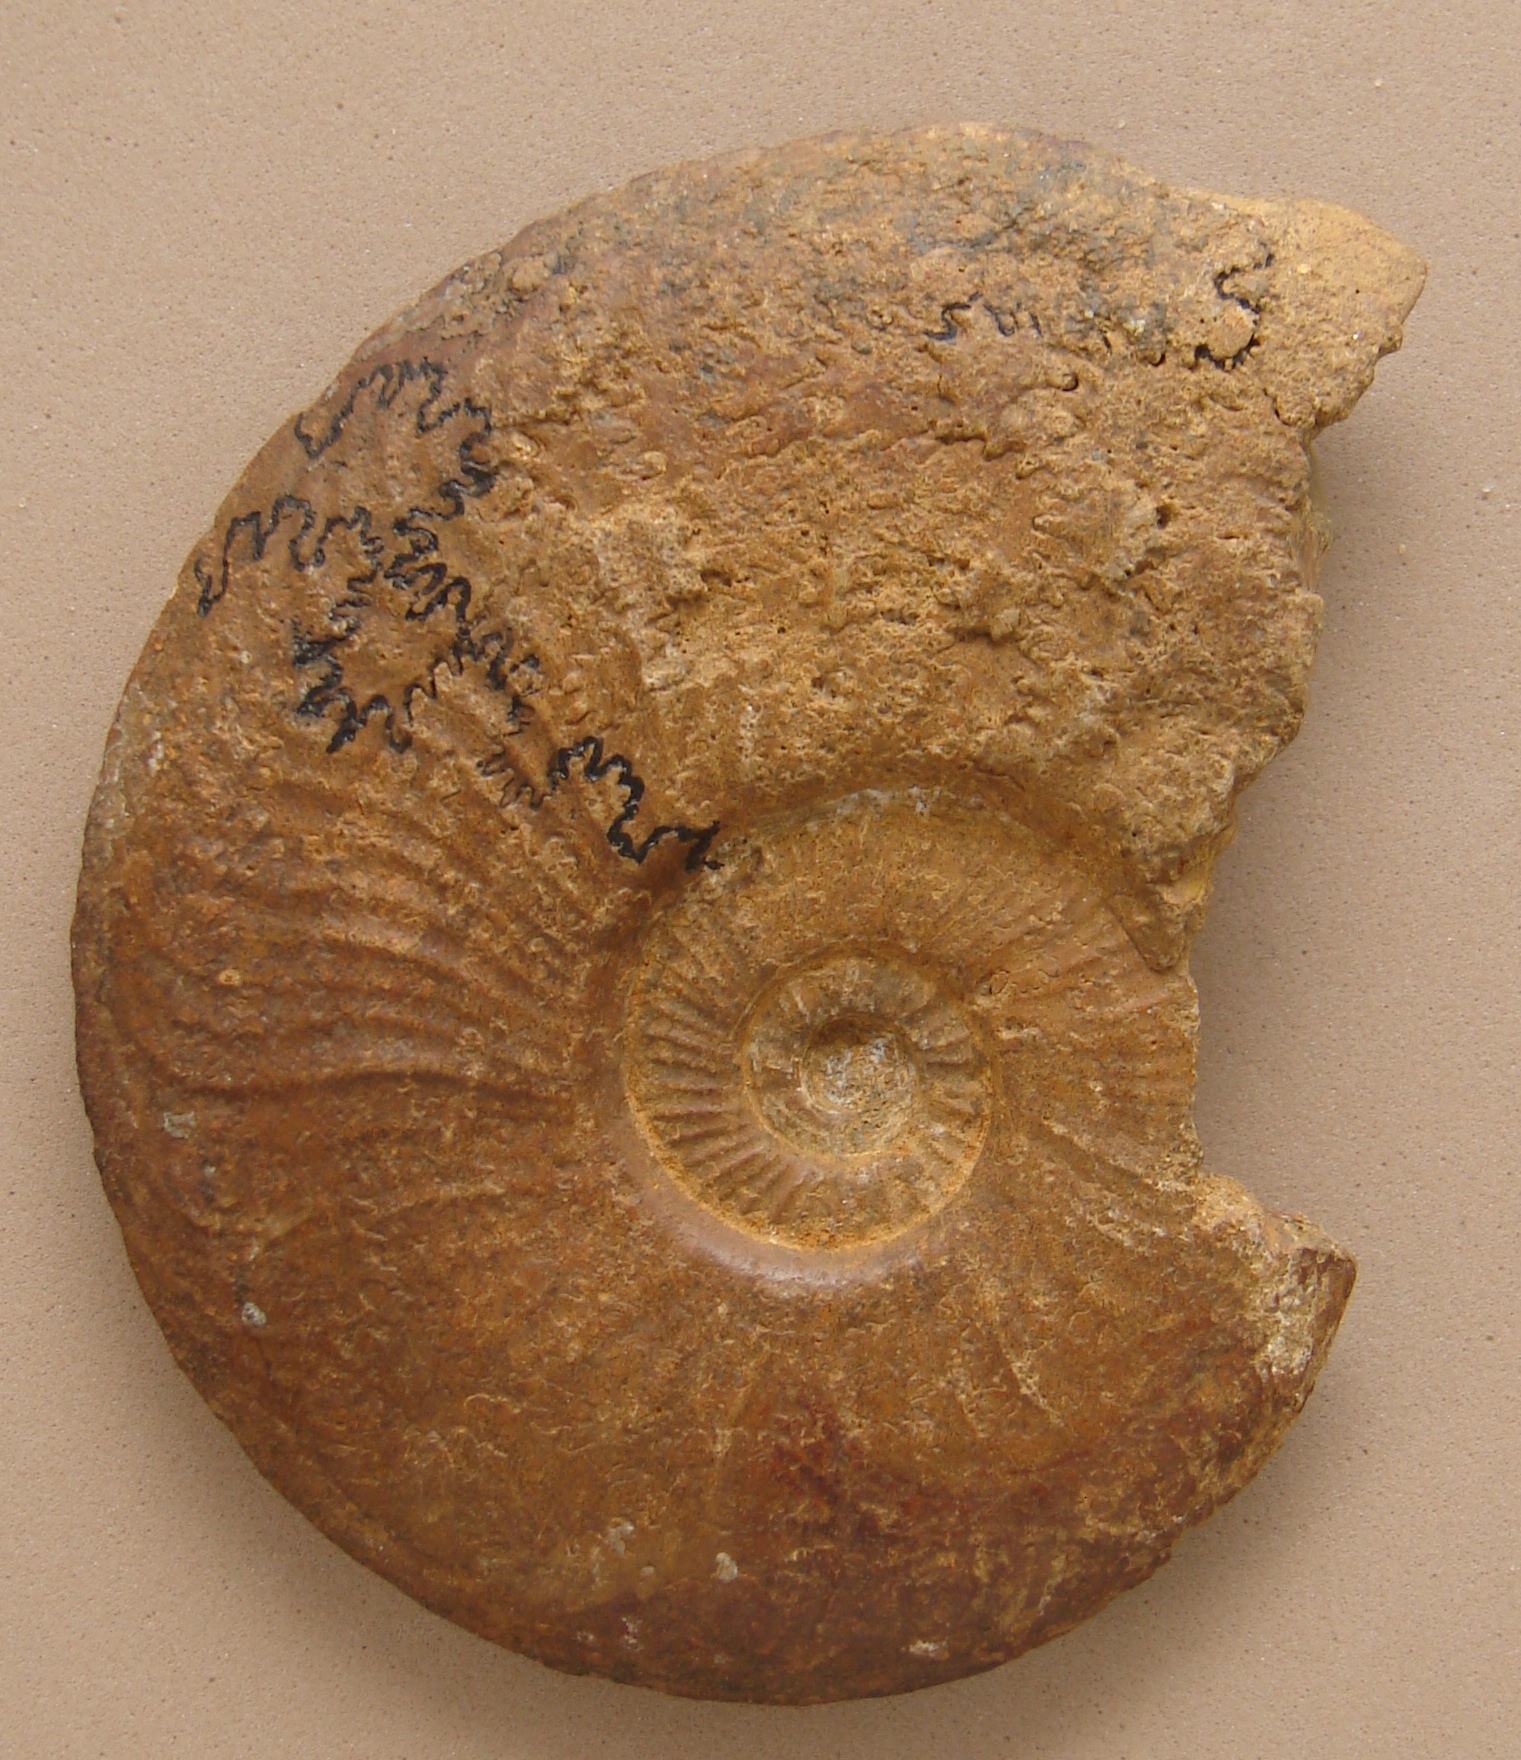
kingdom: Animalia
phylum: Mollusca
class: Cephalopoda
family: Hildoceratidae
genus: Pleydellia
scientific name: Pleydellia falcifer
